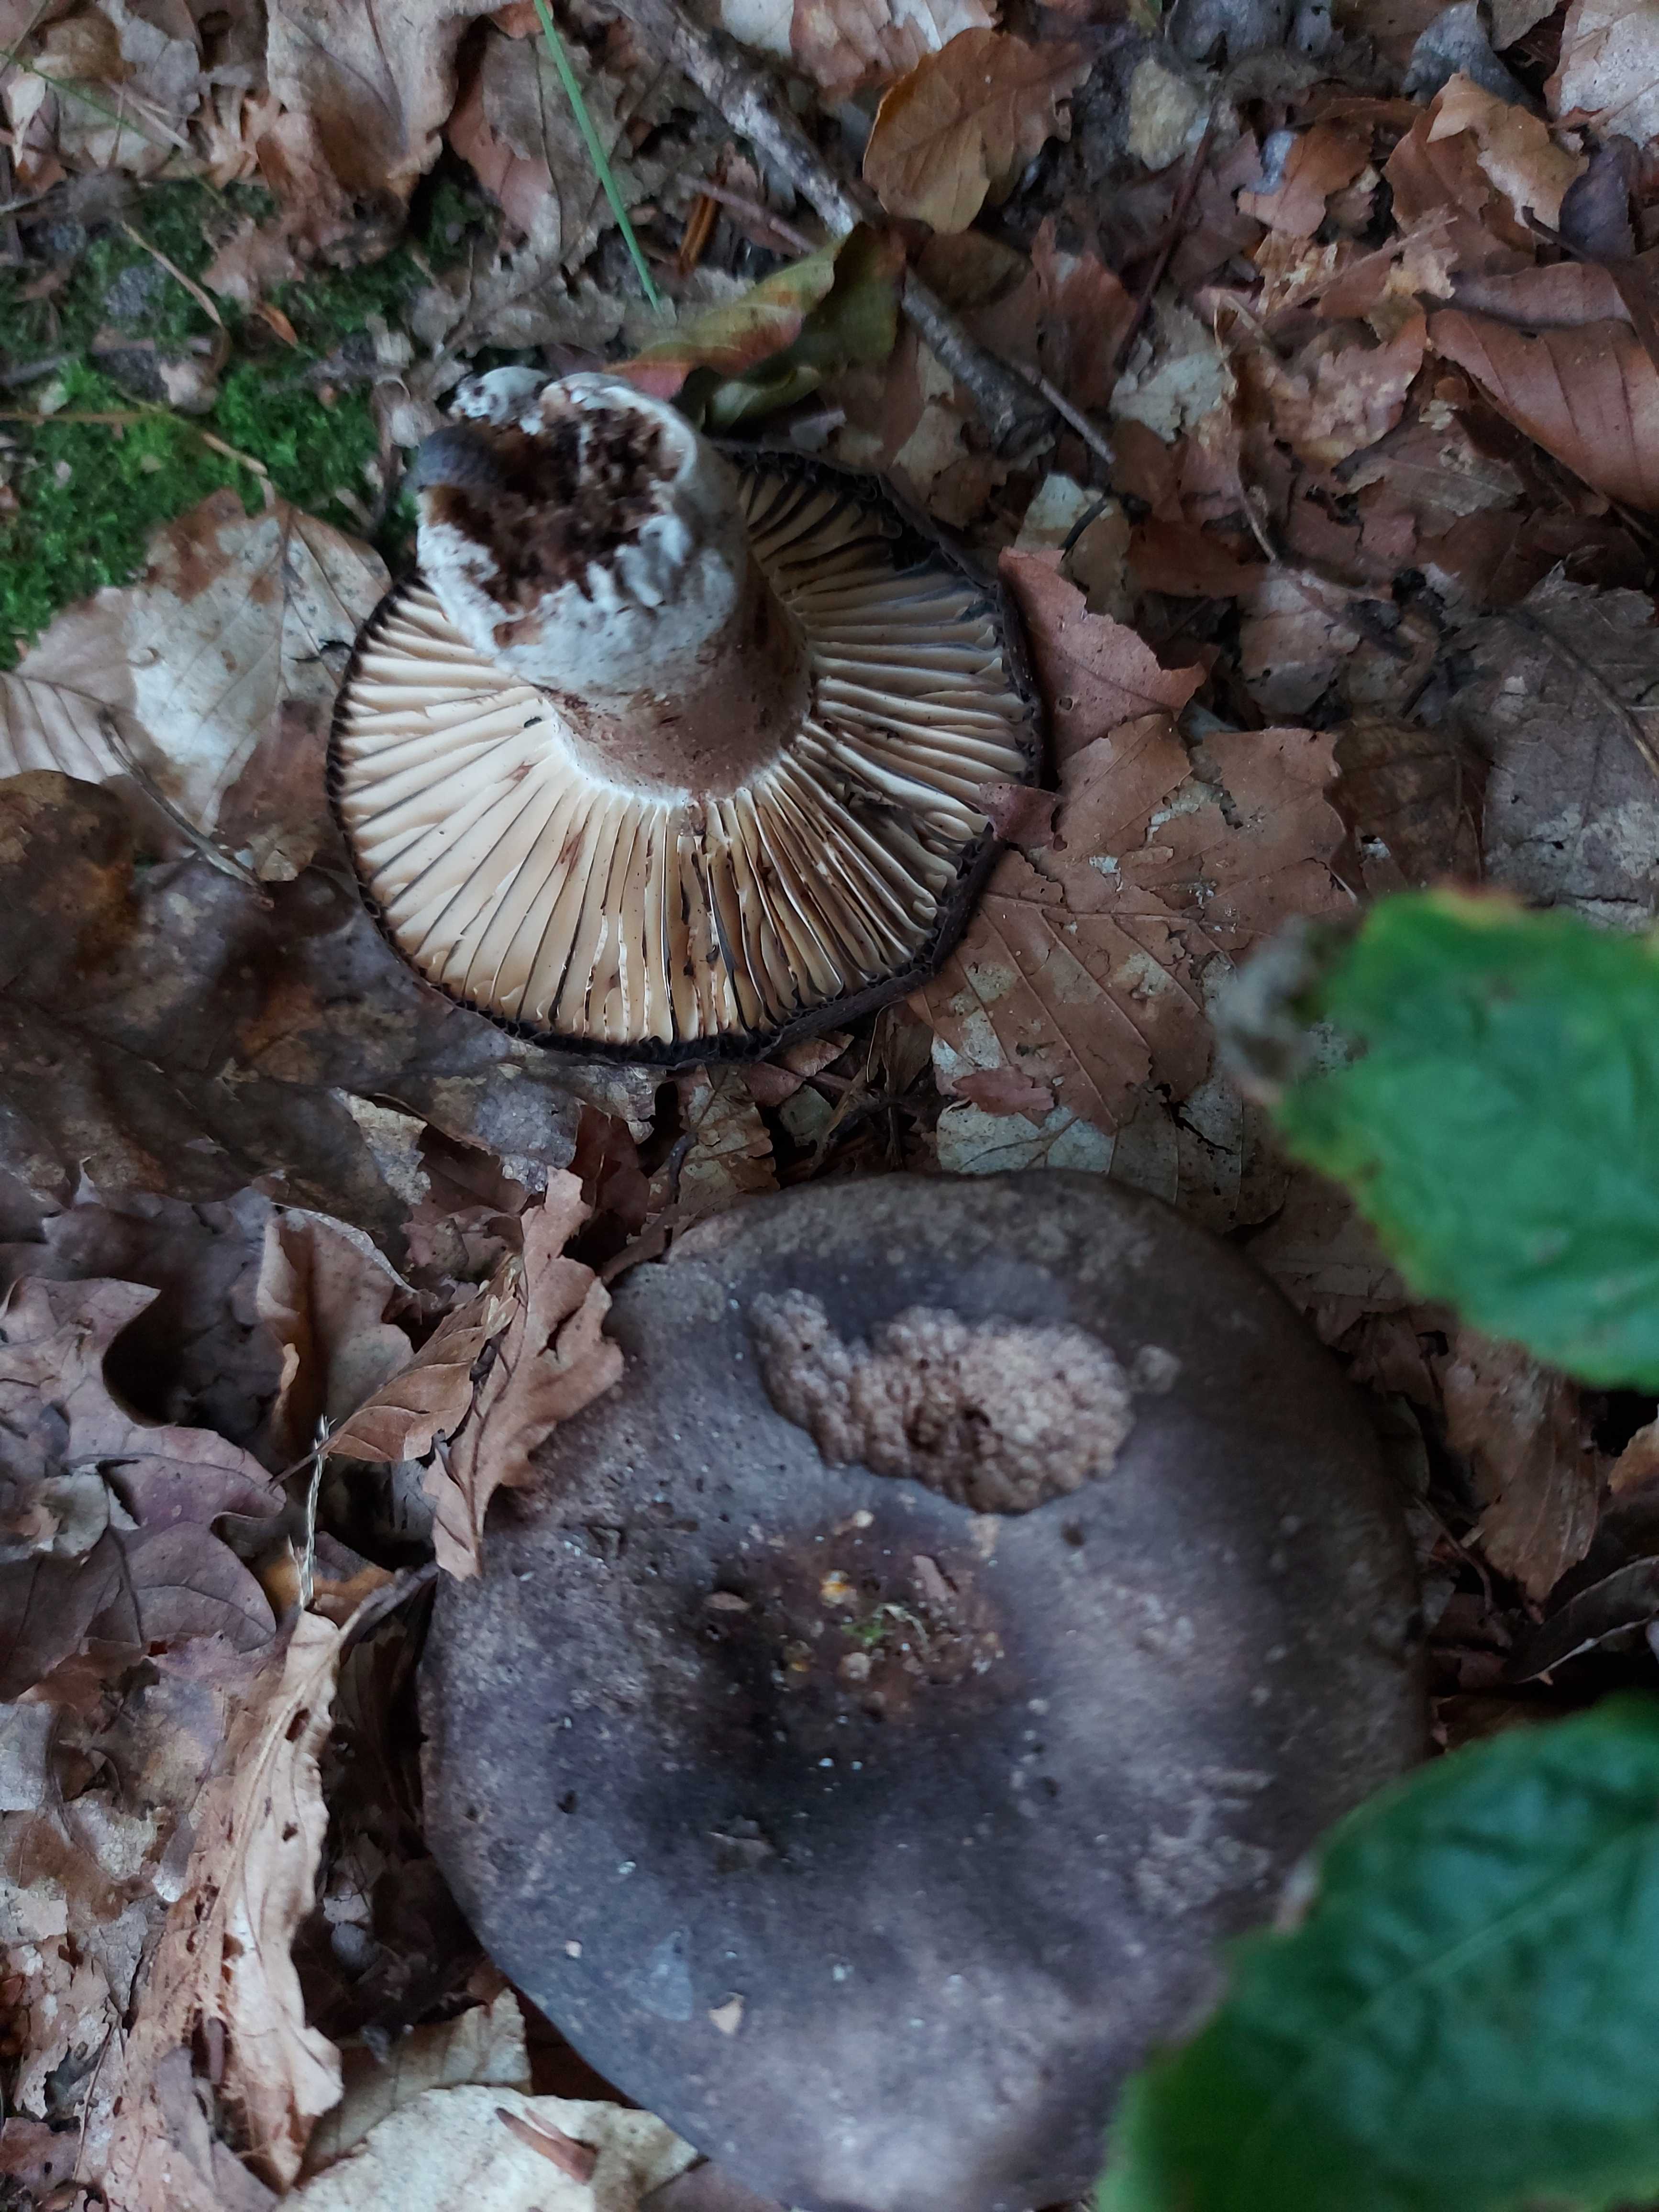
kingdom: Fungi
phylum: Basidiomycota
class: Agaricomycetes
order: Russulales
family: Russulaceae
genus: Russula
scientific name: Russula adusta
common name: sværtende skørhat
